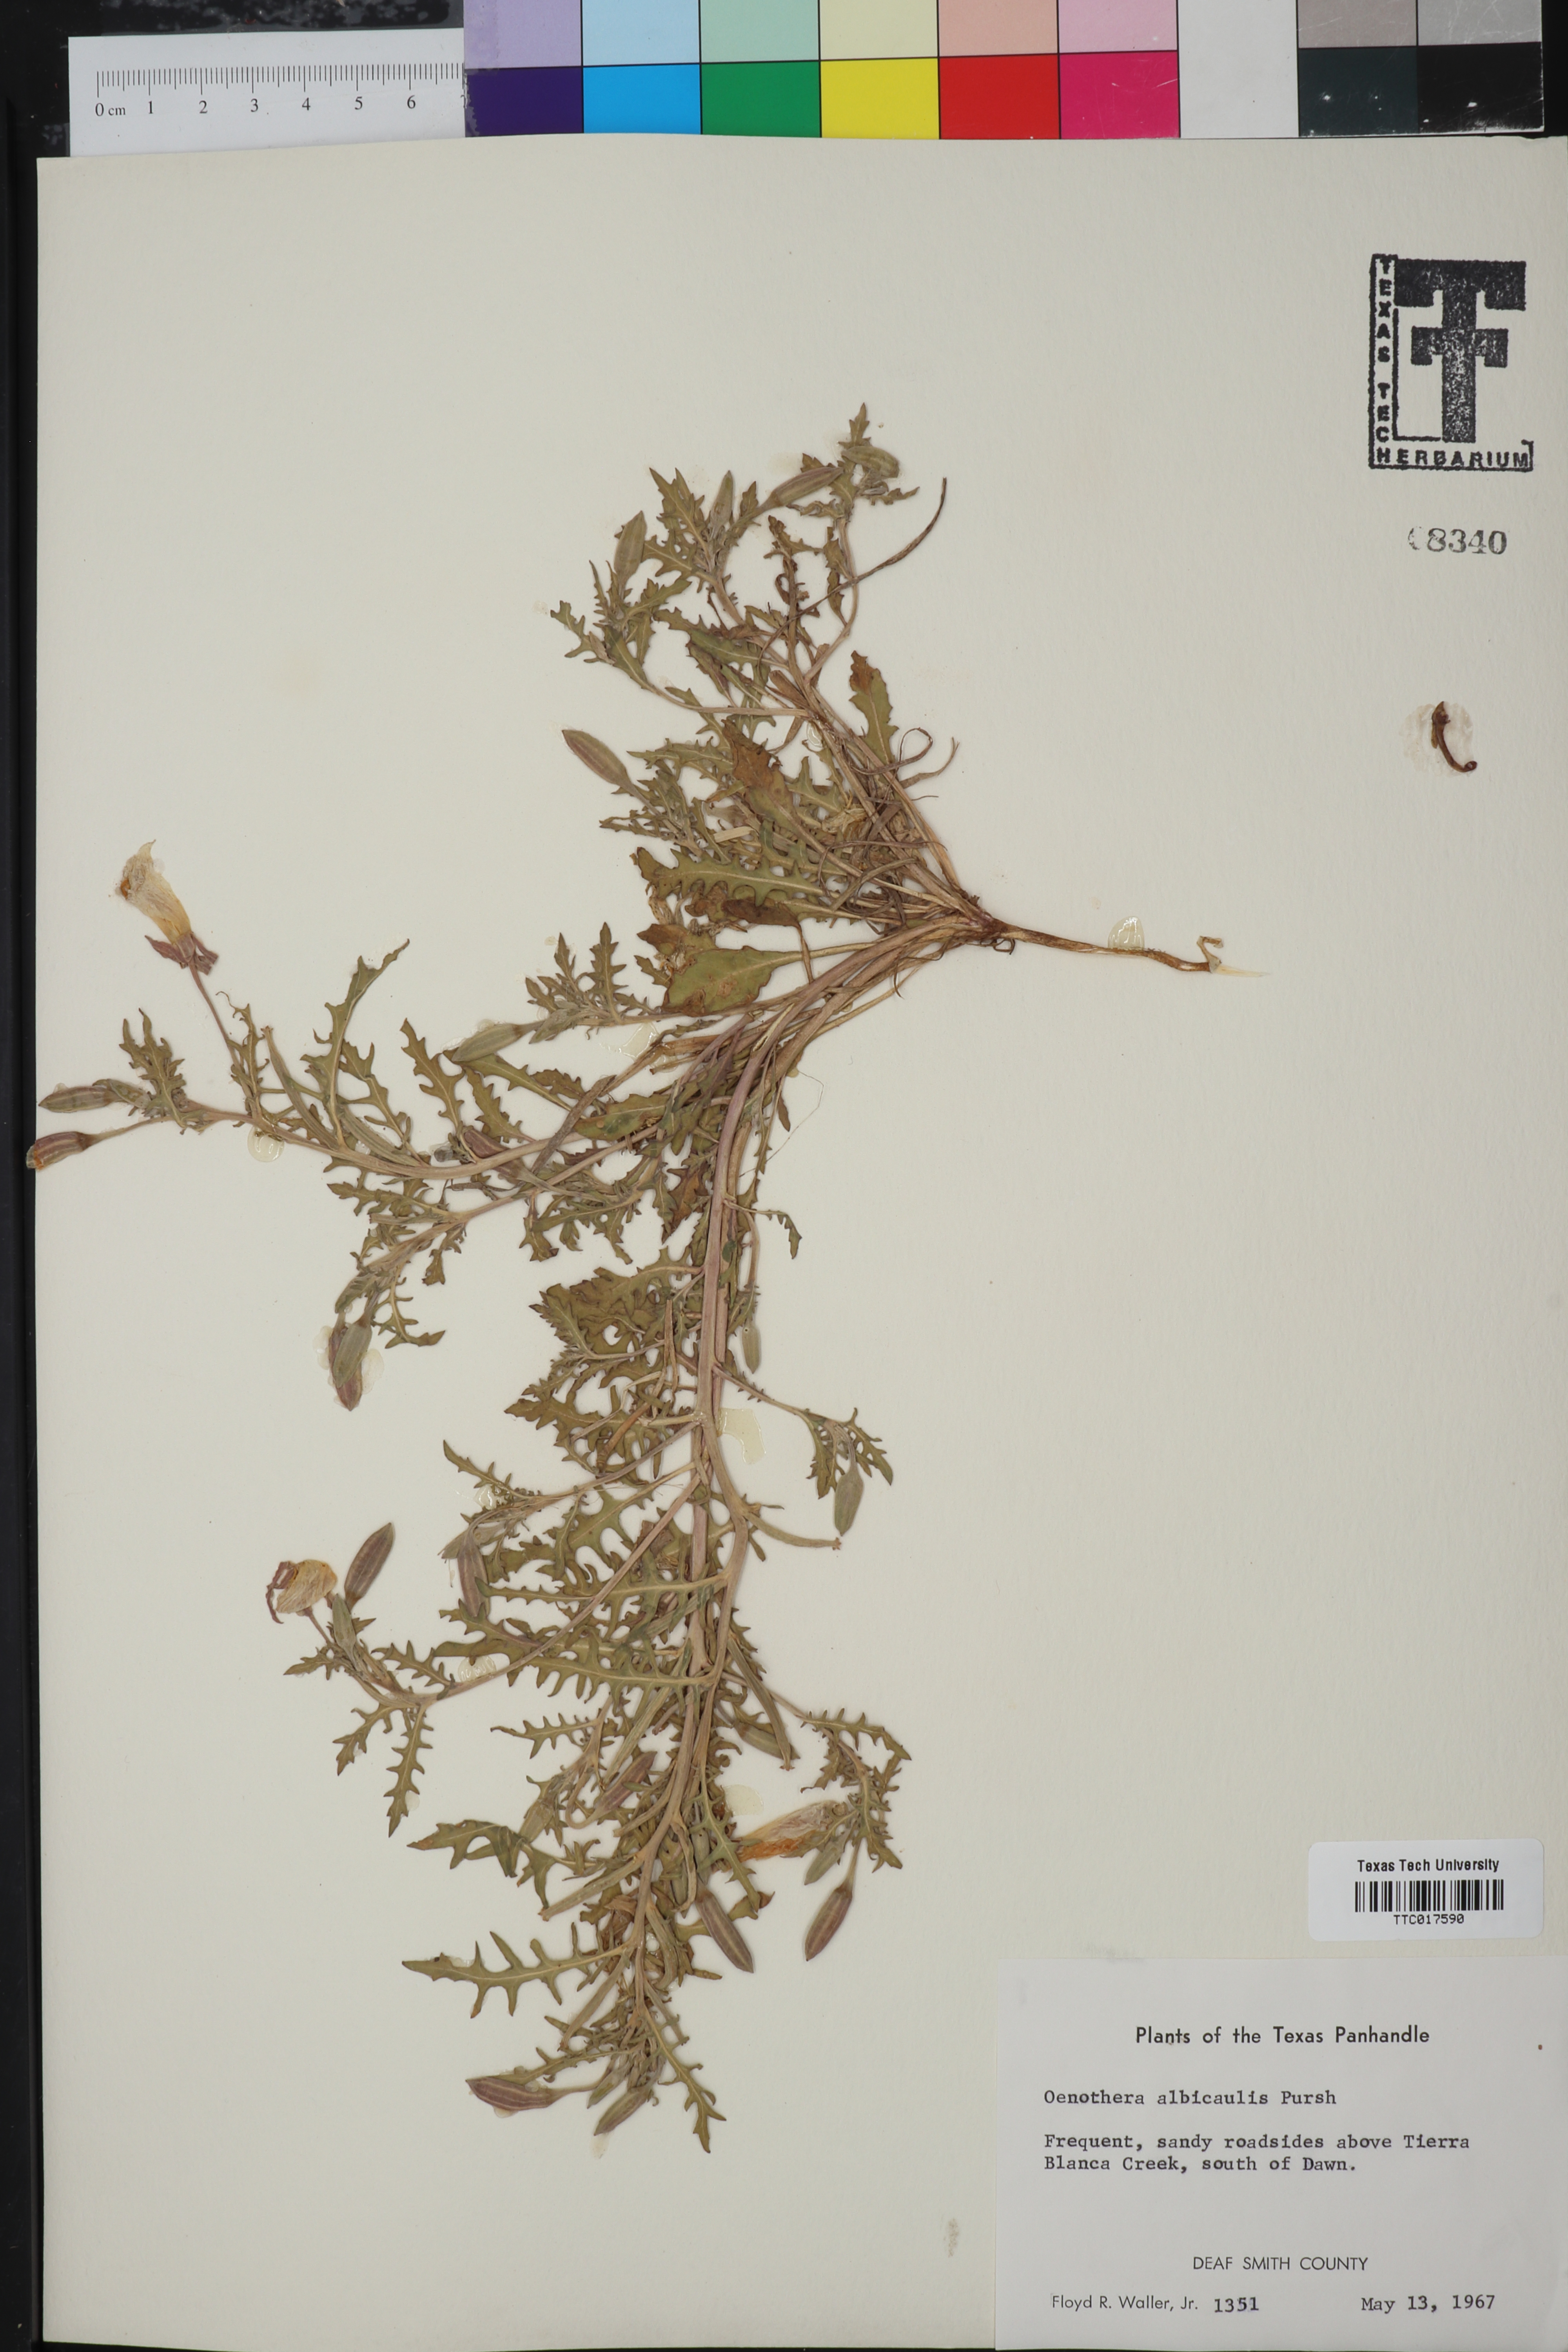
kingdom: Plantae
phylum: Tracheophyta
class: Magnoliopsida
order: Myrtales
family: Onagraceae
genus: Oenothera
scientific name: Oenothera albicaulis
